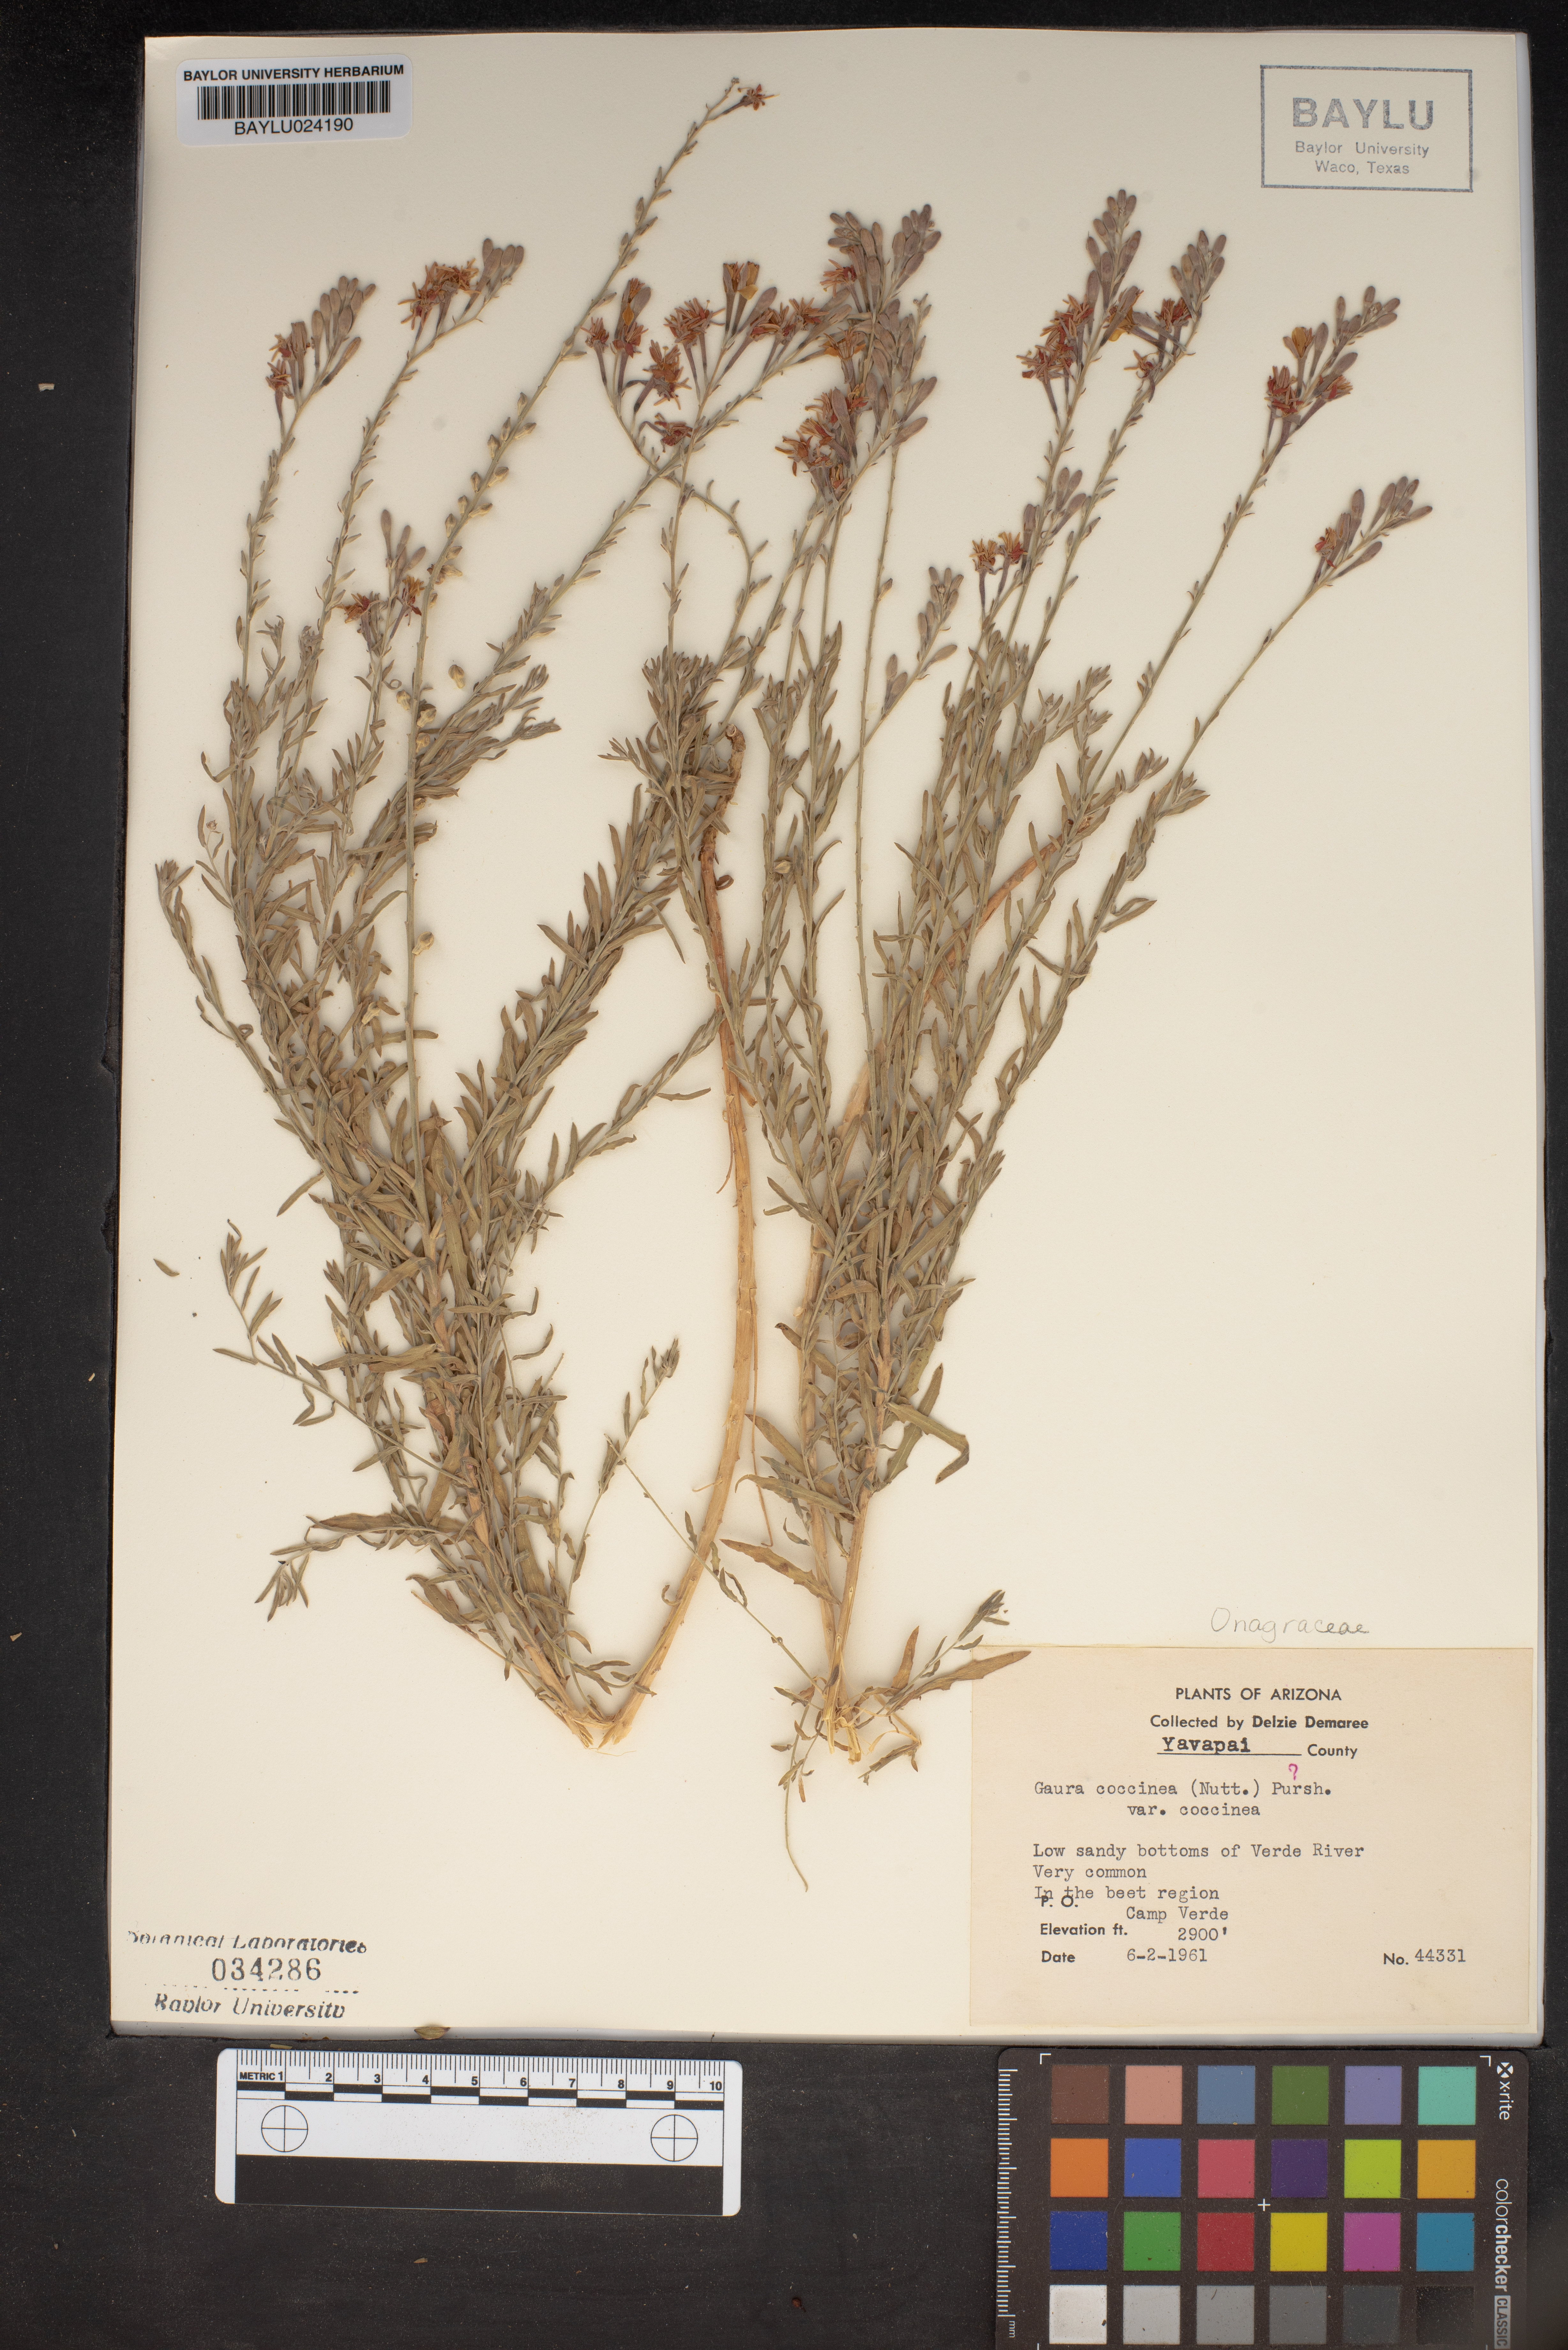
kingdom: Plantae
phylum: Tracheophyta
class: Magnoliopsida
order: Myrtales
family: Onagraceae
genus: Oenothera
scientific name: Oenothera suffrutescens
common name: Scarlet beeblossom
